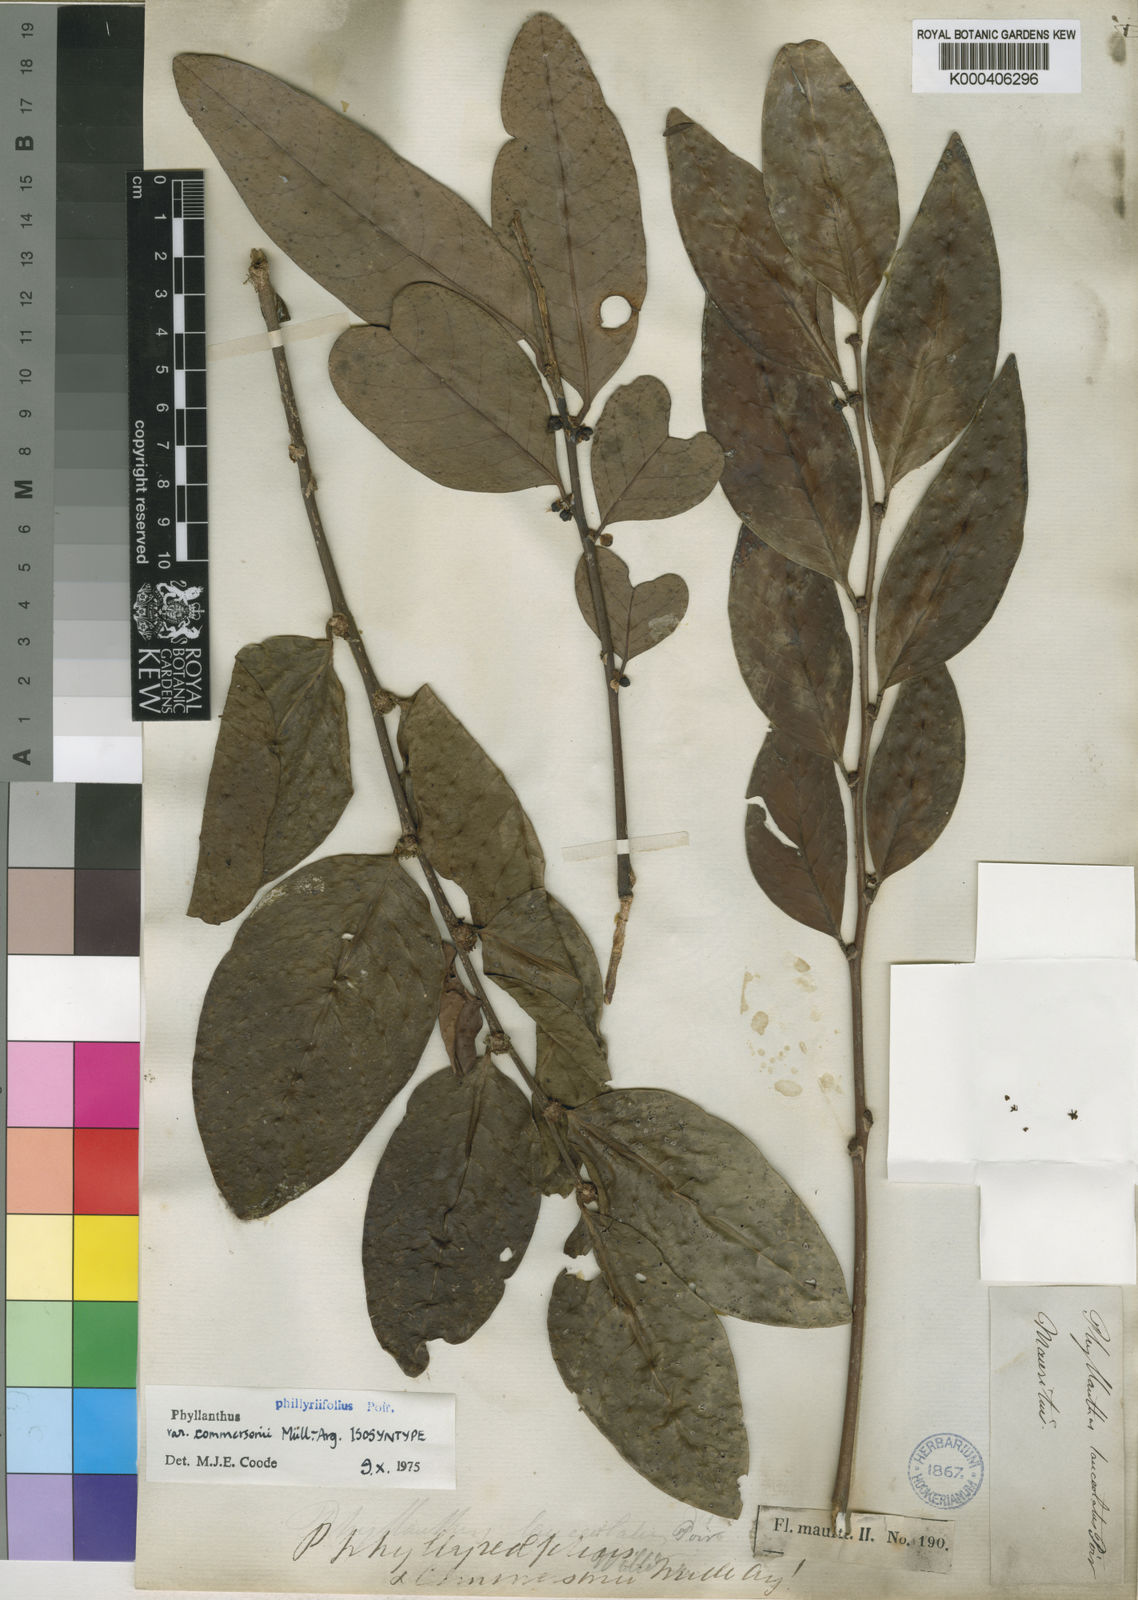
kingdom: Plantae
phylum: Tracheophyta
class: Magnoliopsida
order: Malpighiales
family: Phyllanthaceae
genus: Phyllanthus
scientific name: Phyllanthus phillyreifolius
